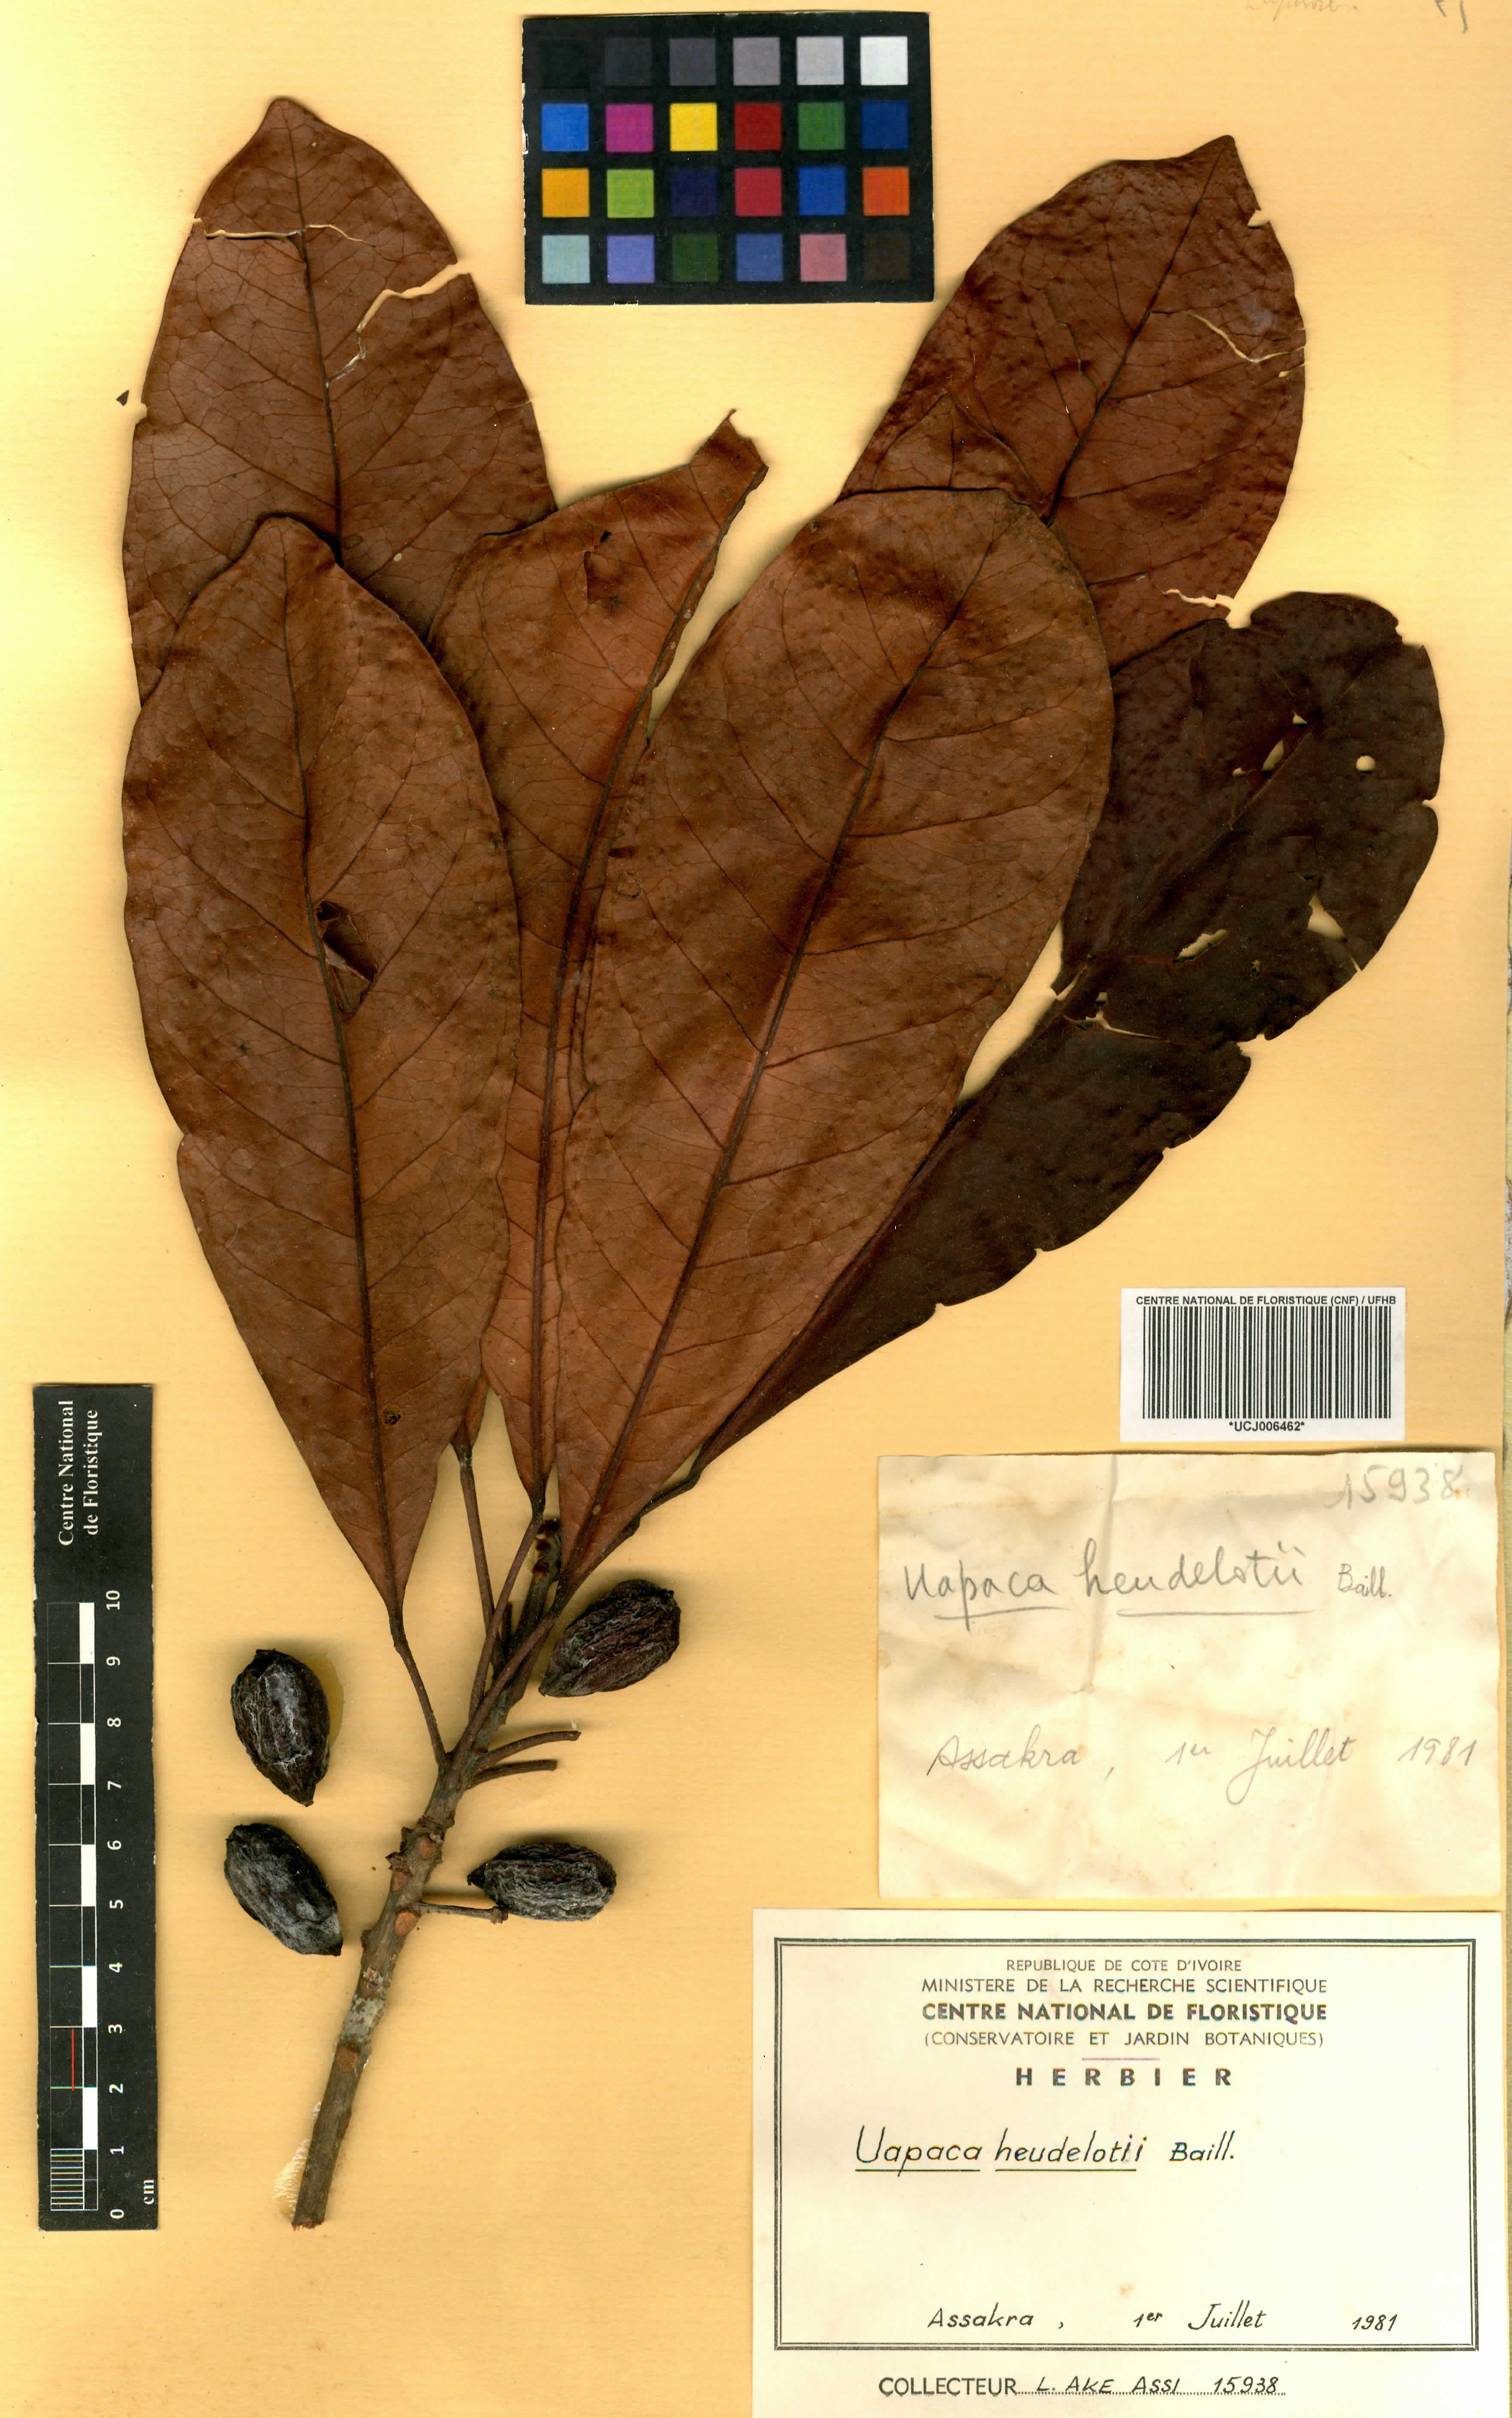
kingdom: Plantae
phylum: Tracheophyta
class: Magnoliopsida
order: Malpighiales
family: Phyllanthaceae
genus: Uapaca
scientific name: Uapaca heudelotii
